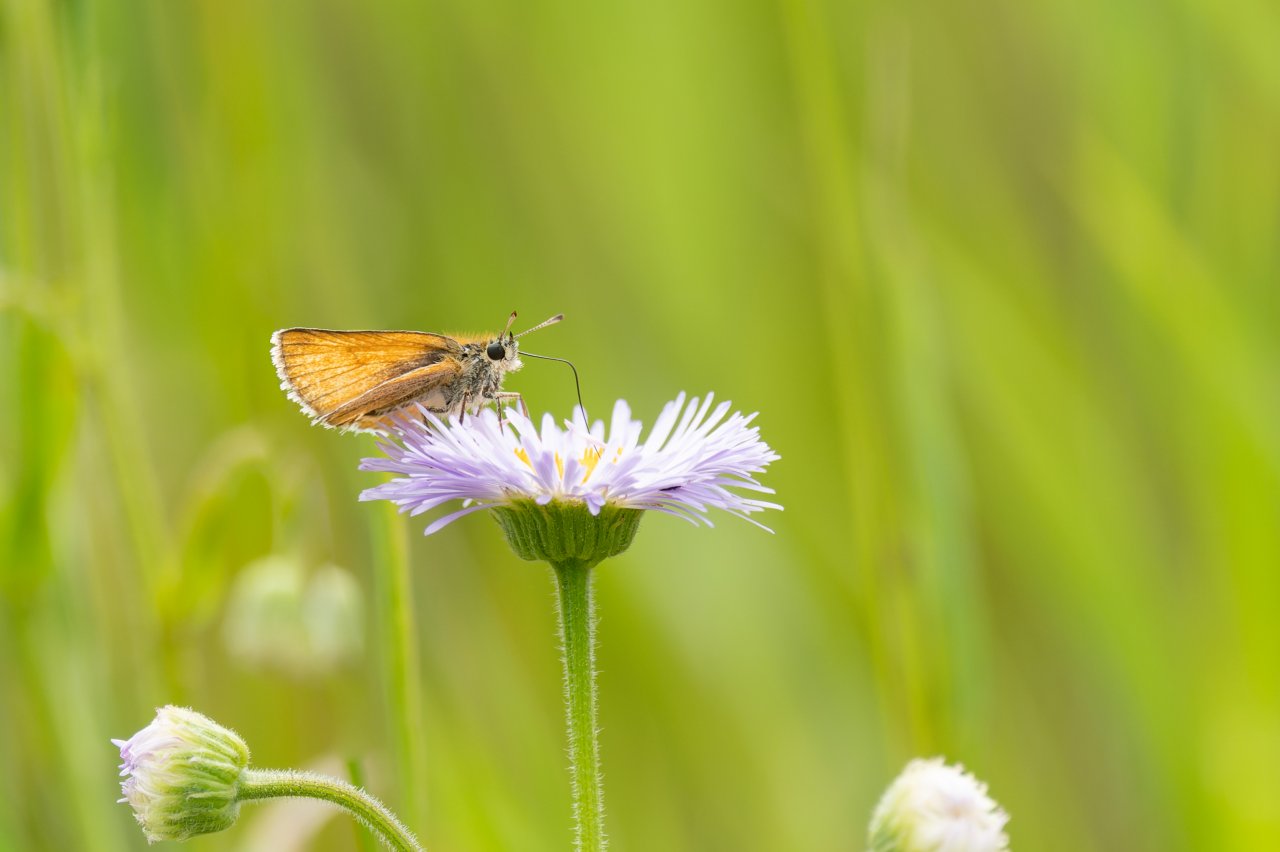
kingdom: Animalia
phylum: Arthropoda
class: Insecta
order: Lepidoptera
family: Hesperiidae
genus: Thymelicus
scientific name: Thymelicus lineola
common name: European Skipper
